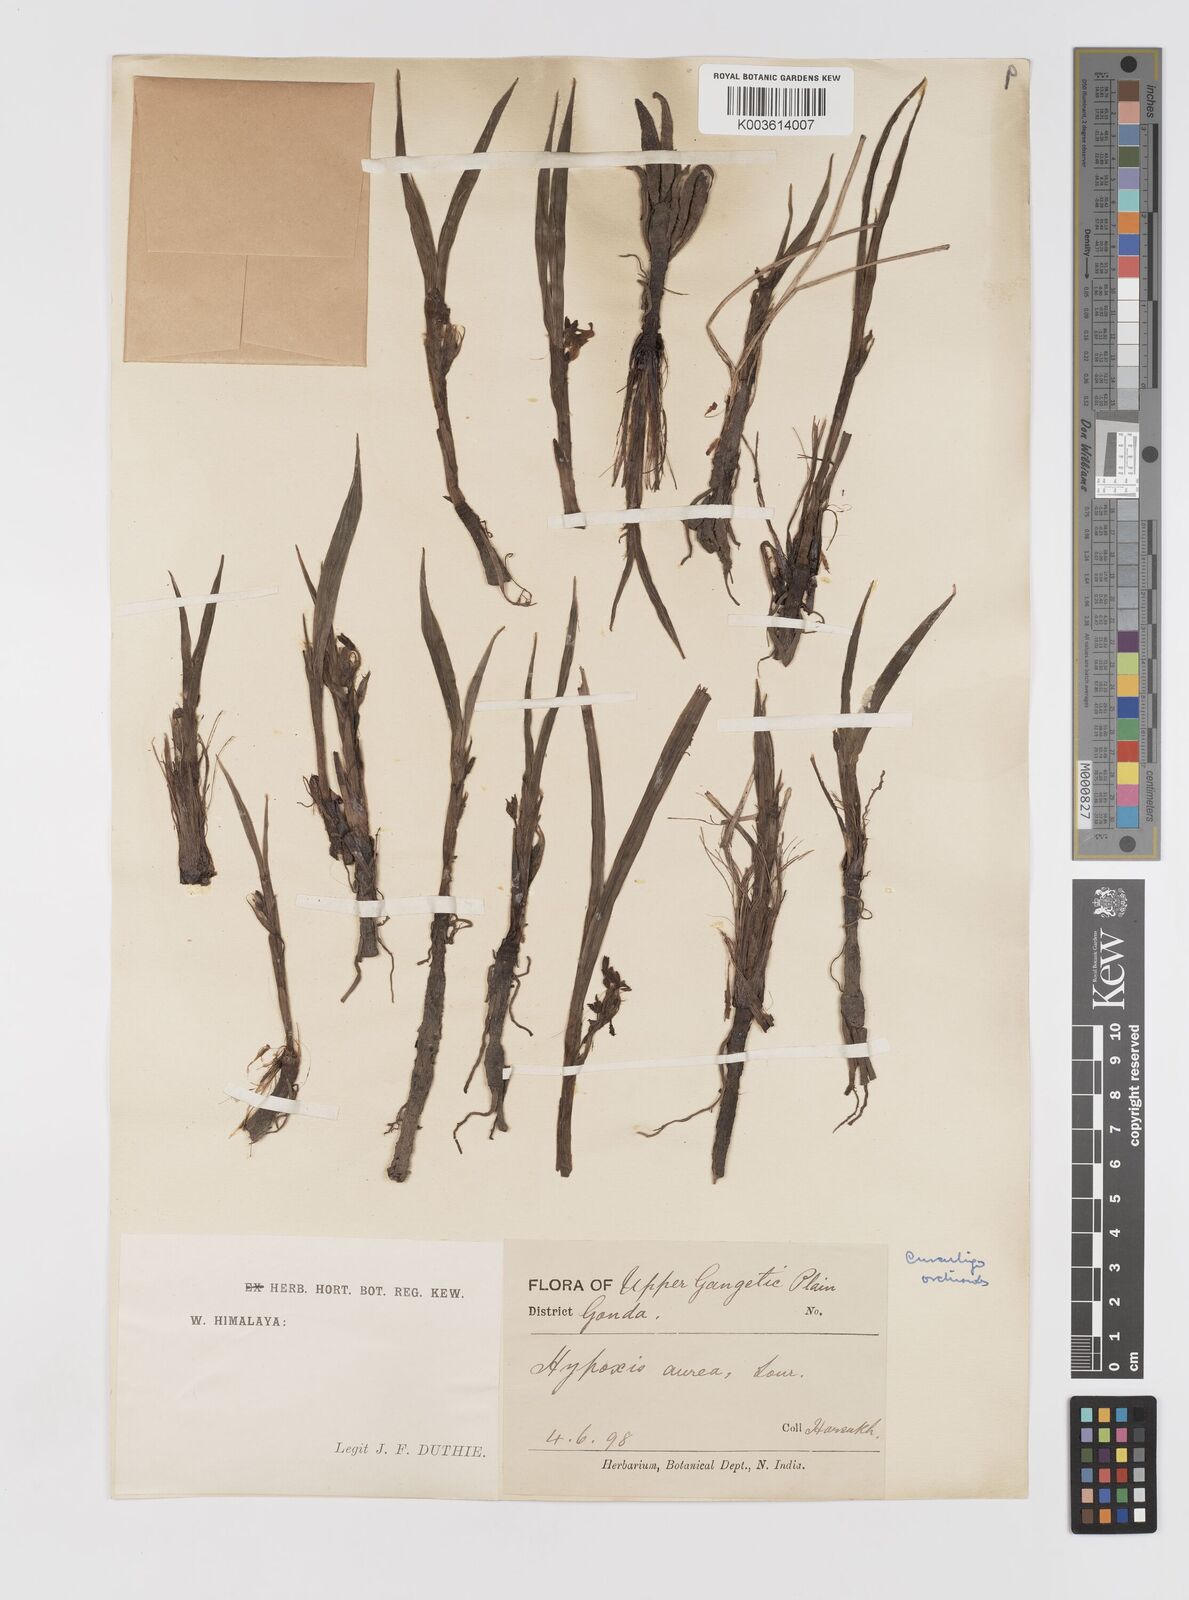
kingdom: Plantae
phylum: Tracheophyta
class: Liliopsida
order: Asparagales
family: Hypoxidaceae
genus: Curculigo
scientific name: Curculigo orchioides
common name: Golden eye-grass
